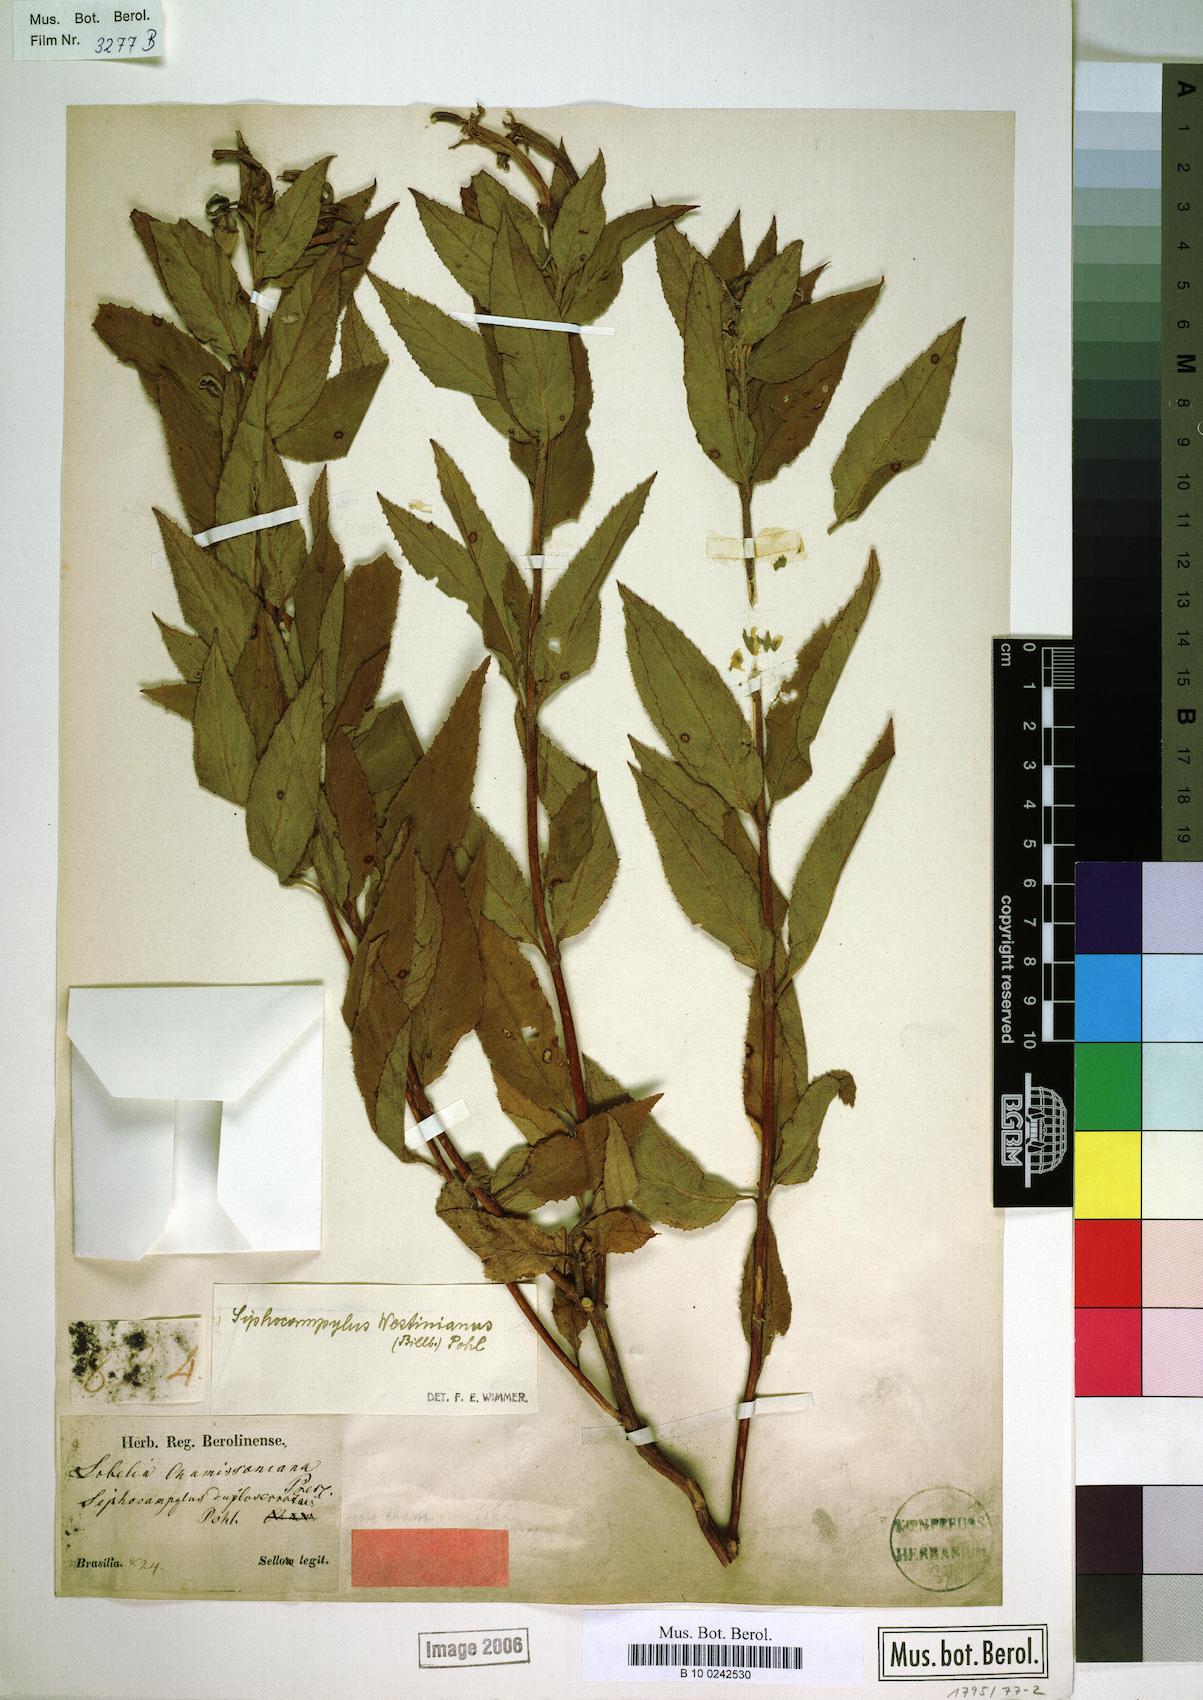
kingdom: Plantae
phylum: Tracheophyta
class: Magnoliopsida
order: Asterales
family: Campanulaceae
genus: Siphocampylus
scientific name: Siphocampylus westinianus
